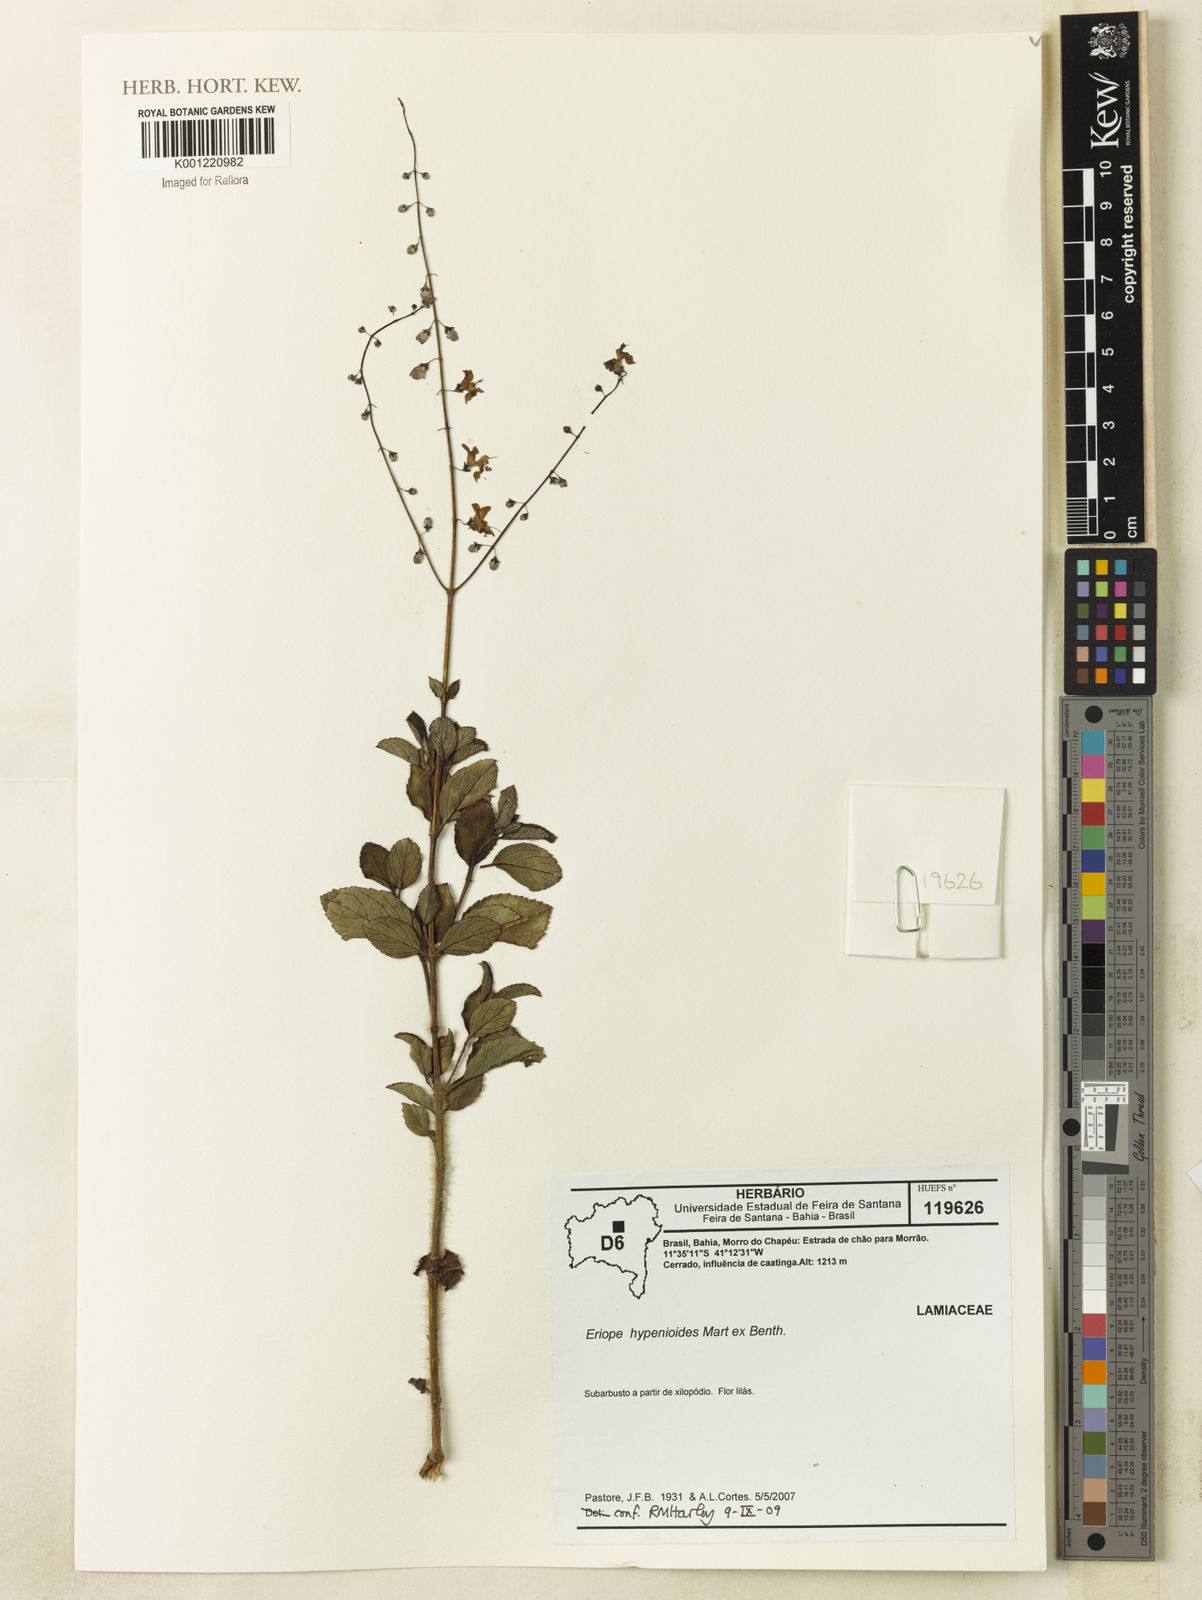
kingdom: Plantae
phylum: Tracheophyta
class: Magnoliopsida
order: Lamiales
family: Lamiaceae
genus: Eriope
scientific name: Eriope hypenioides
